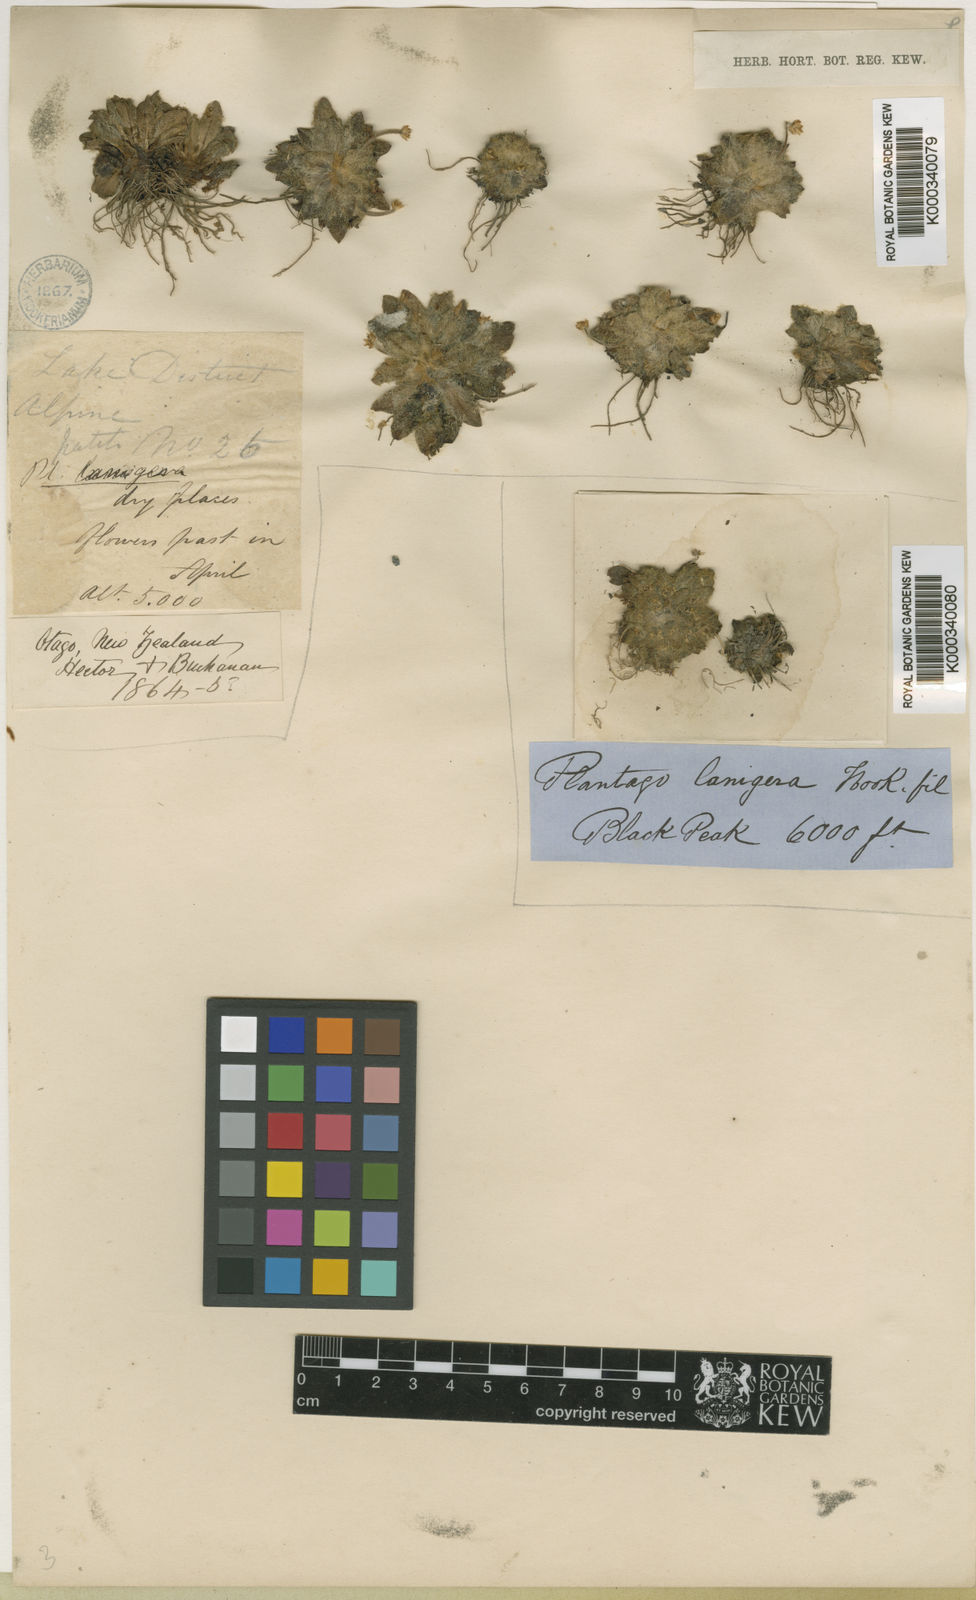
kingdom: Plantae
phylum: Tracheophyta
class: Magnoliopsida
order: Lamiales
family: Plantaginaceae
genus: Plantago
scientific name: Plantago lanigera
